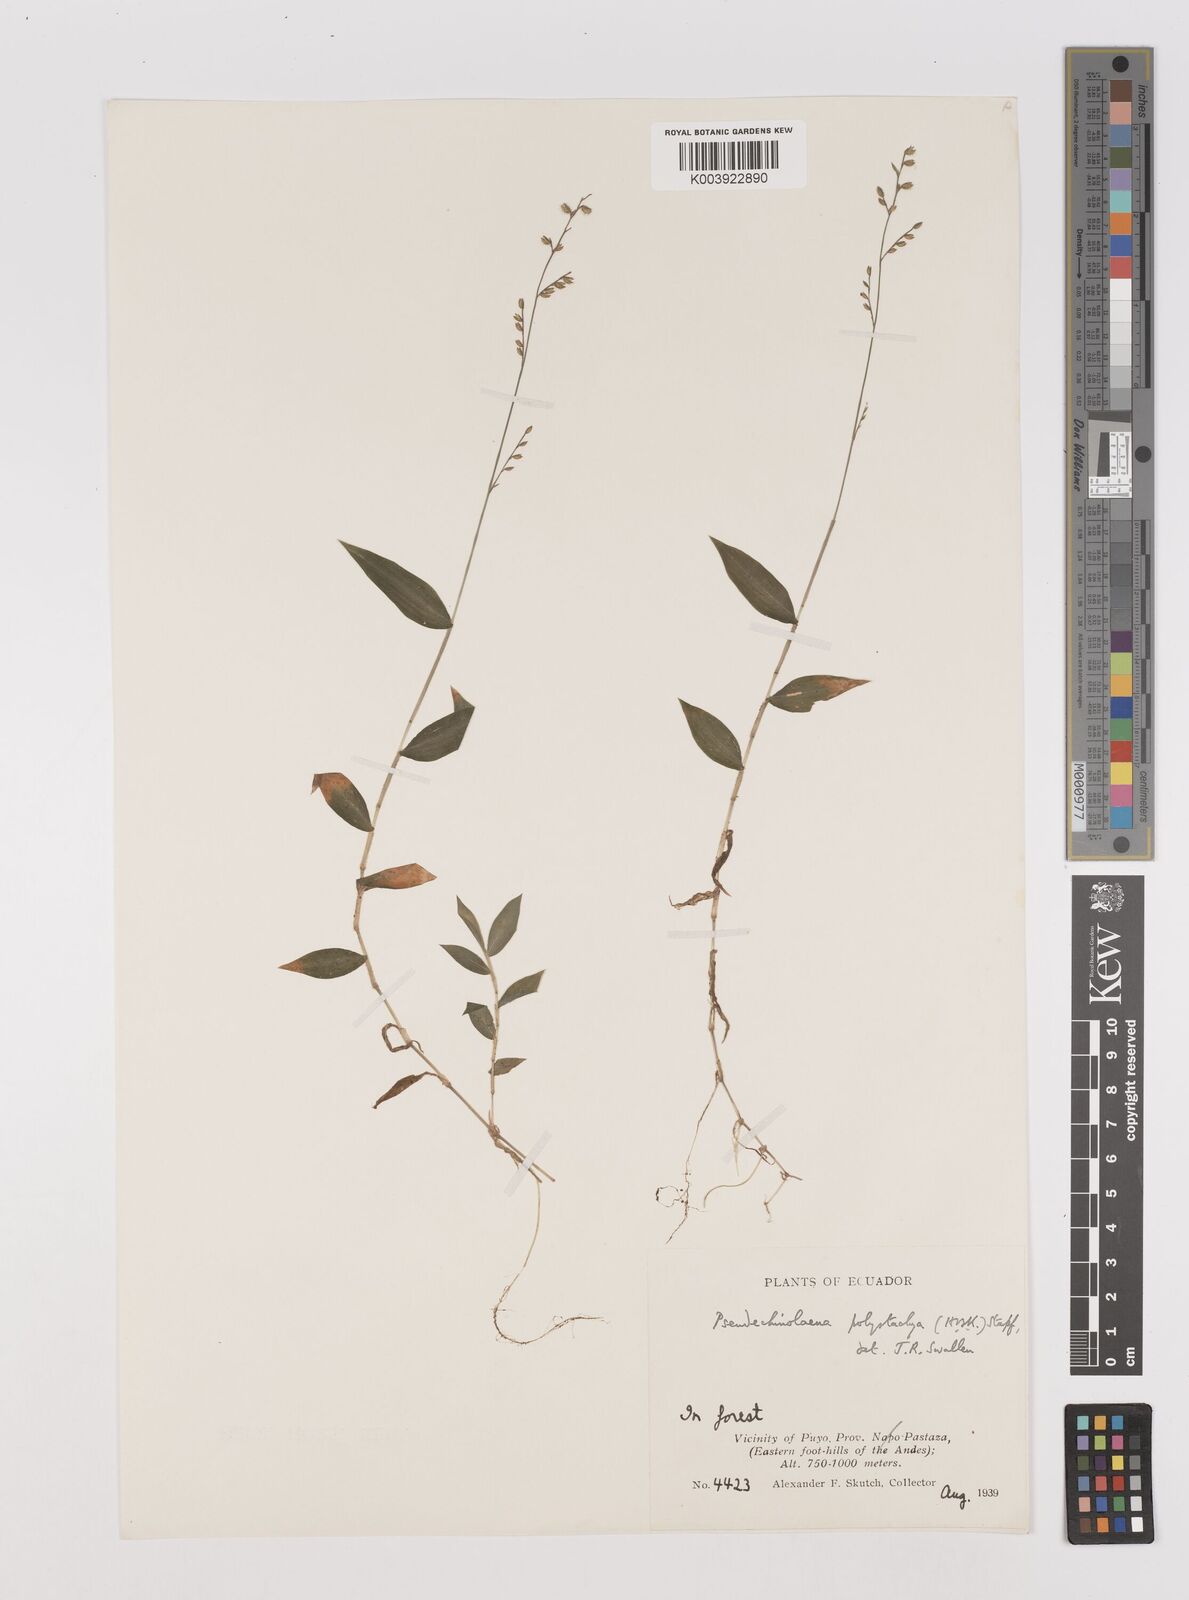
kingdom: Plantae
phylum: Tracheophyta
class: Liliopsida
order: Poales
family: Poaceae
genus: Pseudechinolaena
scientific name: Pseudechinolaena polystachya
